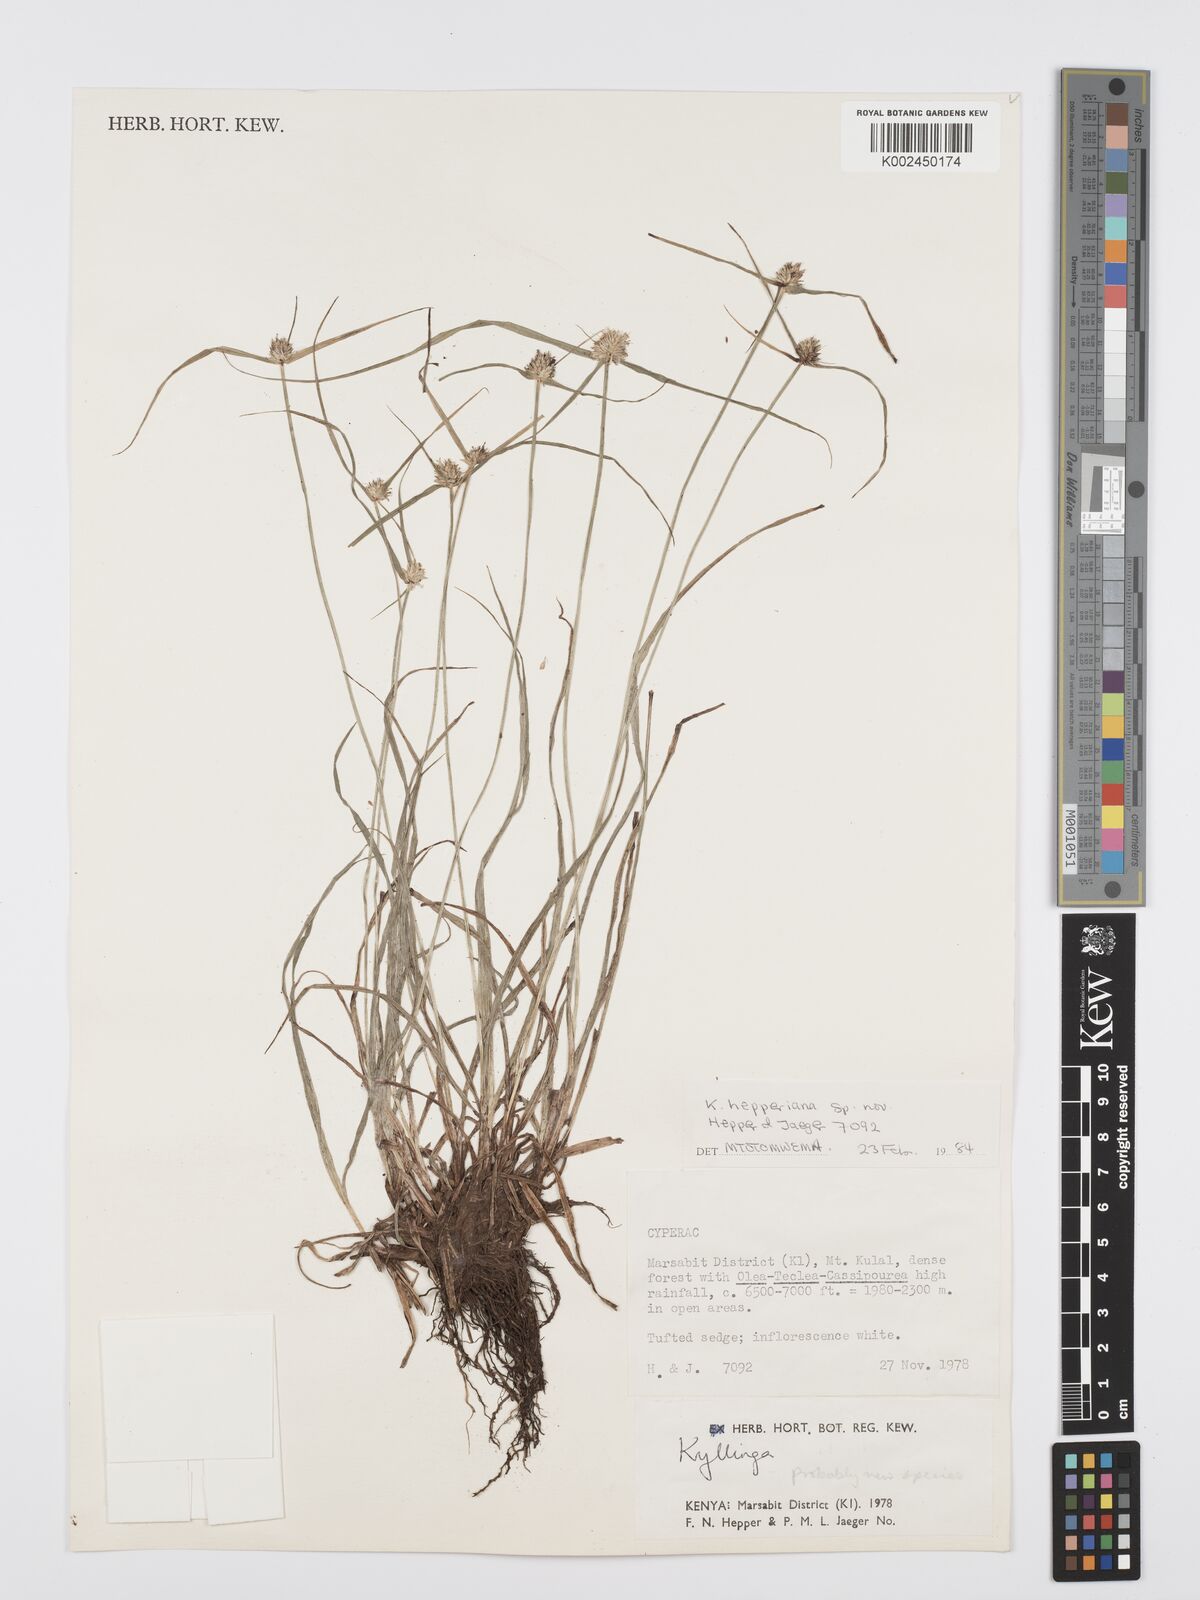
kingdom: Plantae
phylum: Tracheophyta
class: Liliopsida
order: Poales
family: Cyperaceae
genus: Cyperus
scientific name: Cyperus
